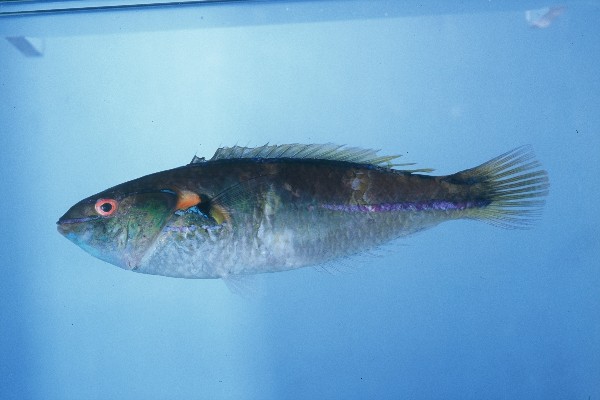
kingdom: Animalia
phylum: Chordata
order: Perciformes
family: Labridae
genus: Stethojulis
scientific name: Stethojulis interrupta
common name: Cutribbon wrasse
